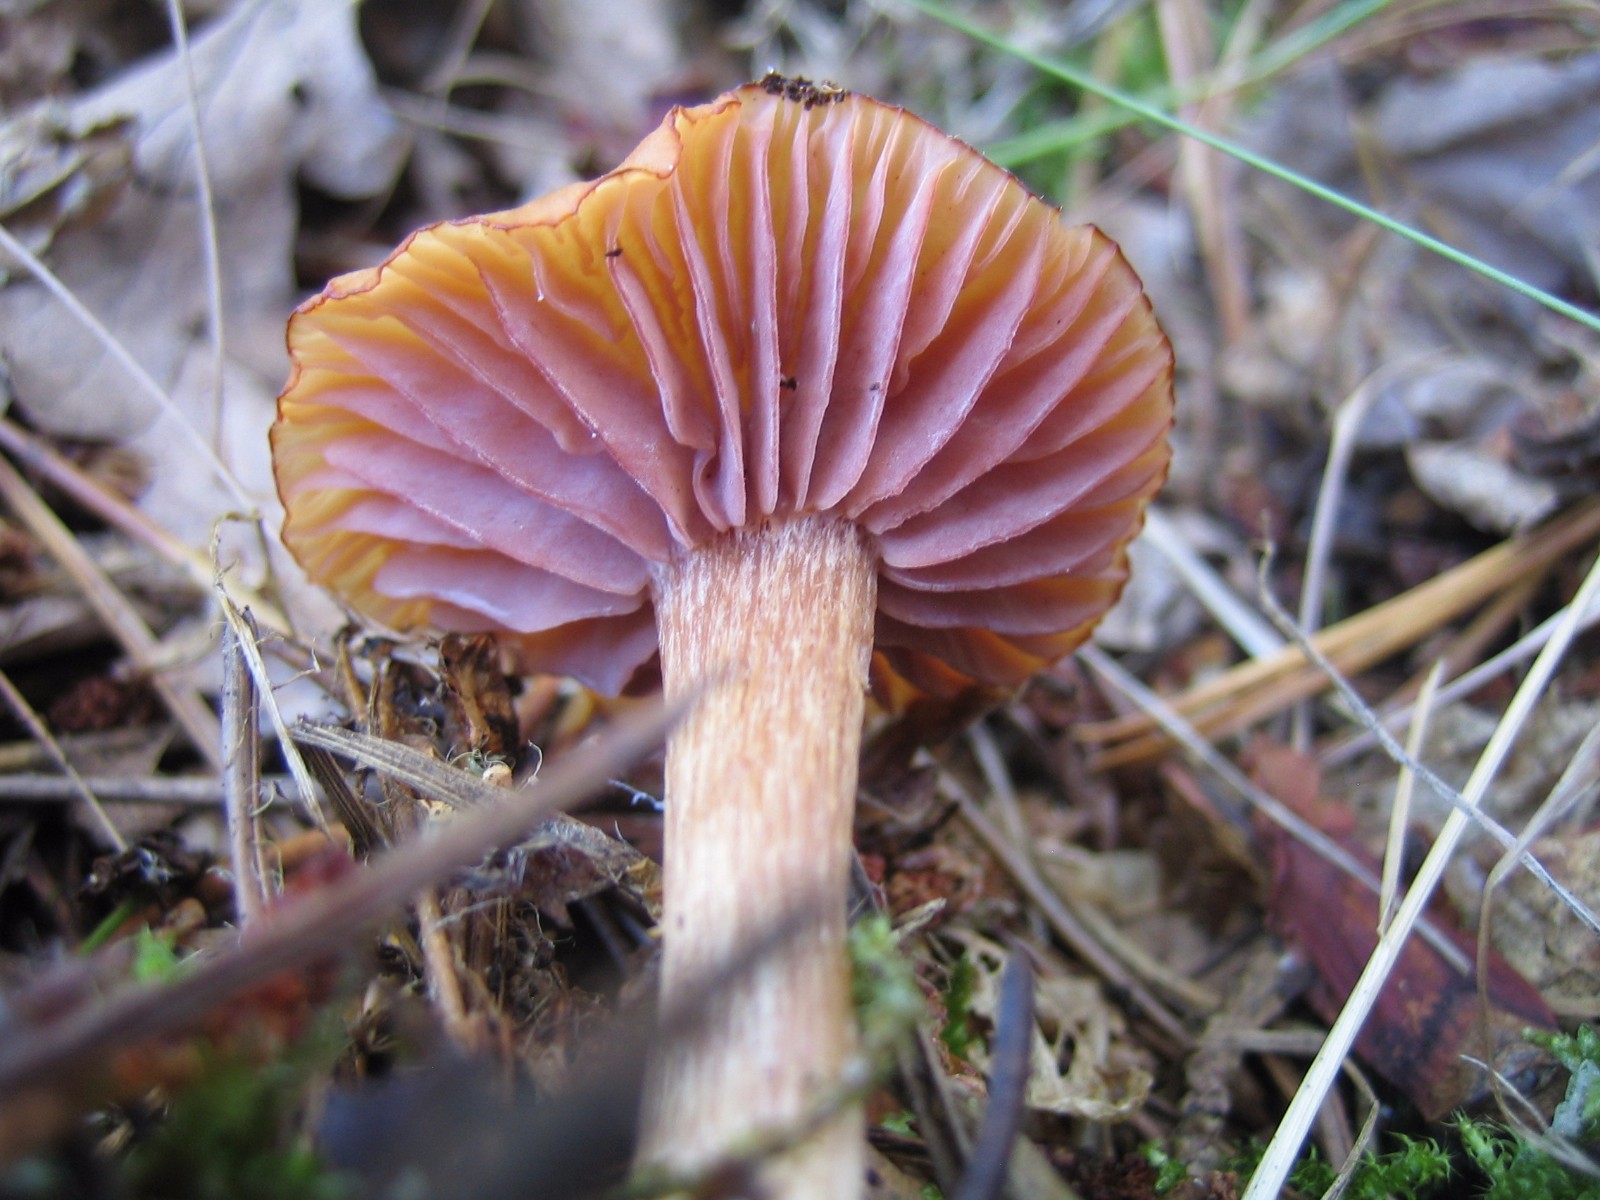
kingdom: Fungi
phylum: Basidiomycota
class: Agaricomycetes
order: Agaricales
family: Hydnangiaceae
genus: Laccaria
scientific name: Laccaria laccata
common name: rød ametysthat
